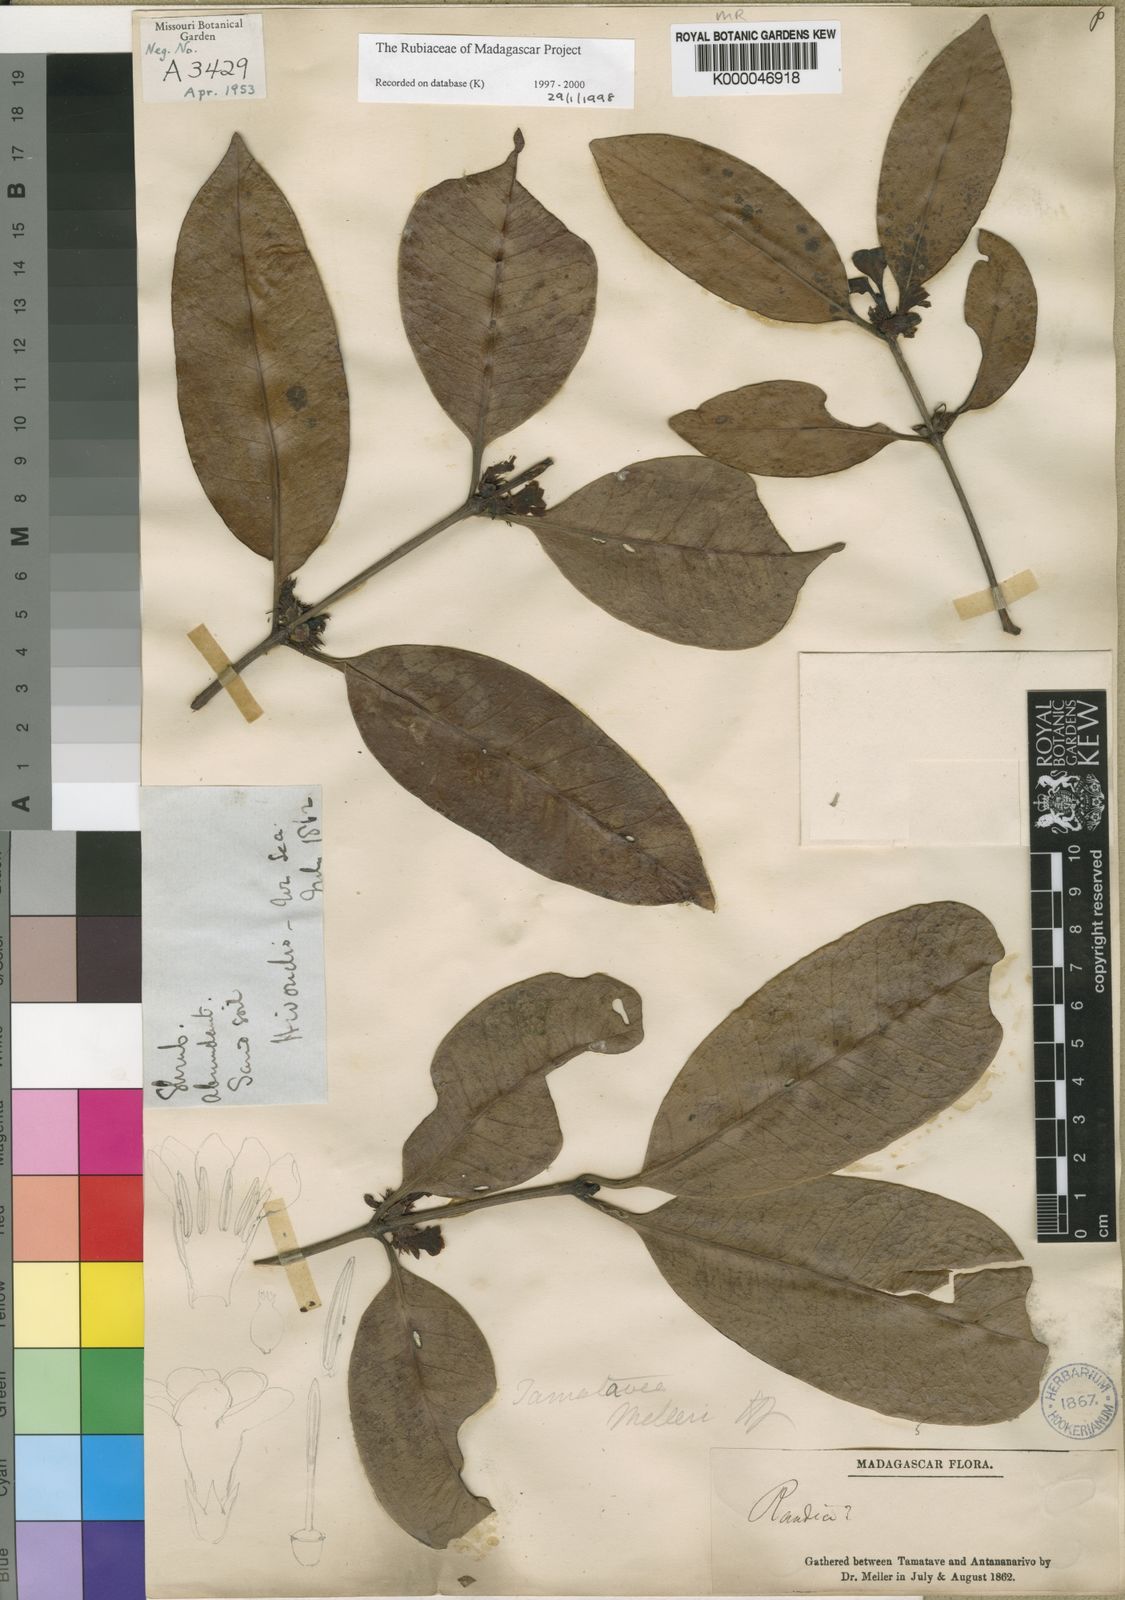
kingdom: Plantae
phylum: Tracheophyta
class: Magnoliopsida
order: Gentianales
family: Rubiaceae
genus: Chapelieria
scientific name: Chapelieria madagascariensis
